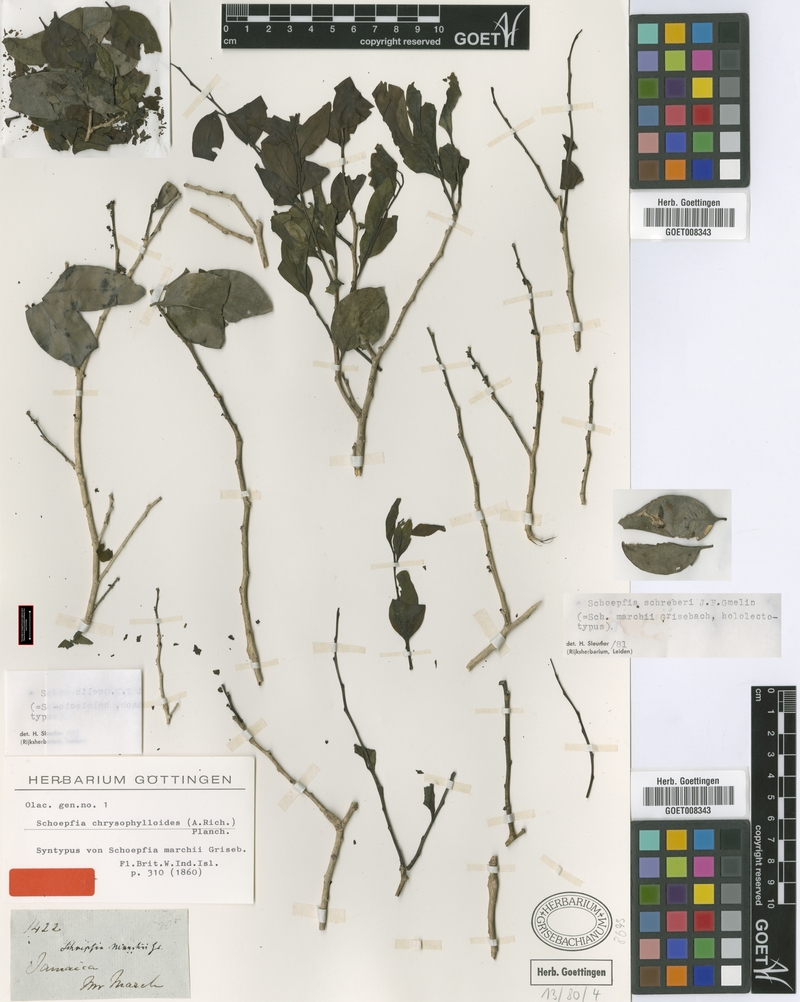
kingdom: Plantae
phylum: Tracheophyta
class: Magnoliopsida
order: Santalales
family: Schoepfiaceae
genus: Schoepfia
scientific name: Schoepfia schreberi
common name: Gulf graytwig
